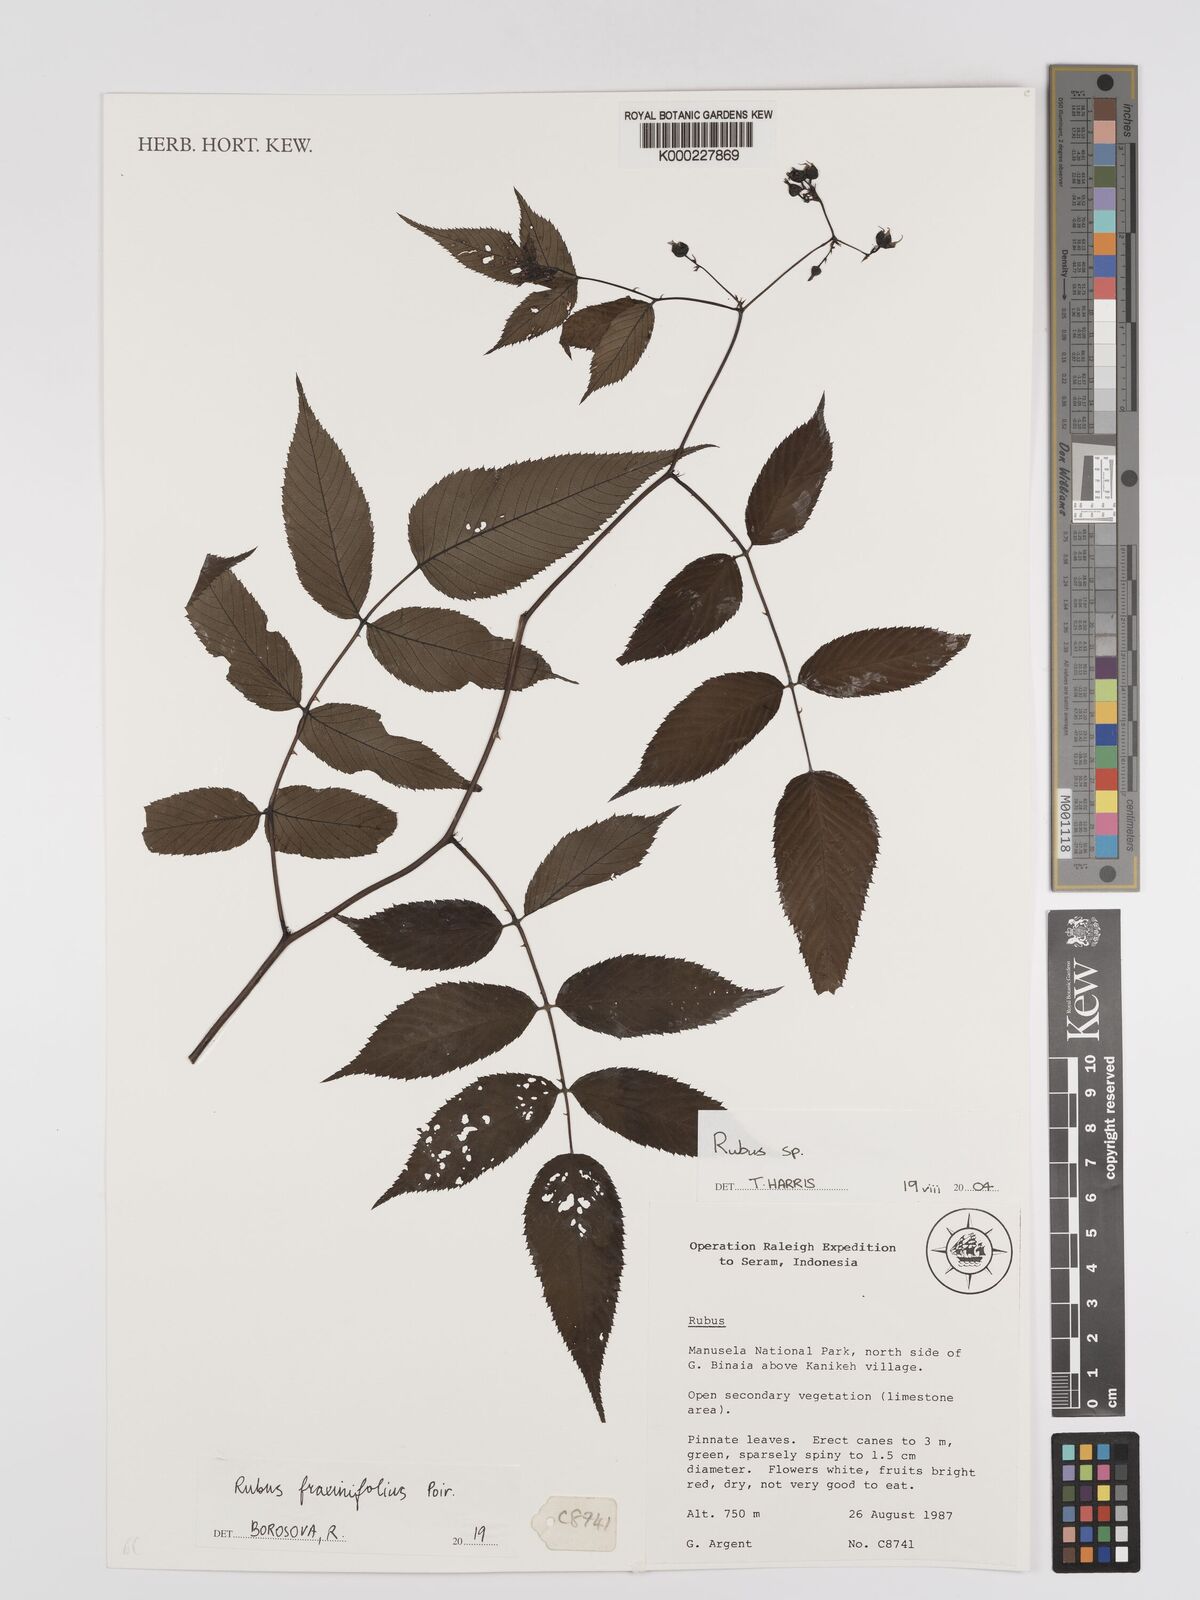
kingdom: Plantae
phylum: Tracheophyta
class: Magnoliopsida
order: Rosales
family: Rosaceae
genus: Rubus
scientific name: Rubus
